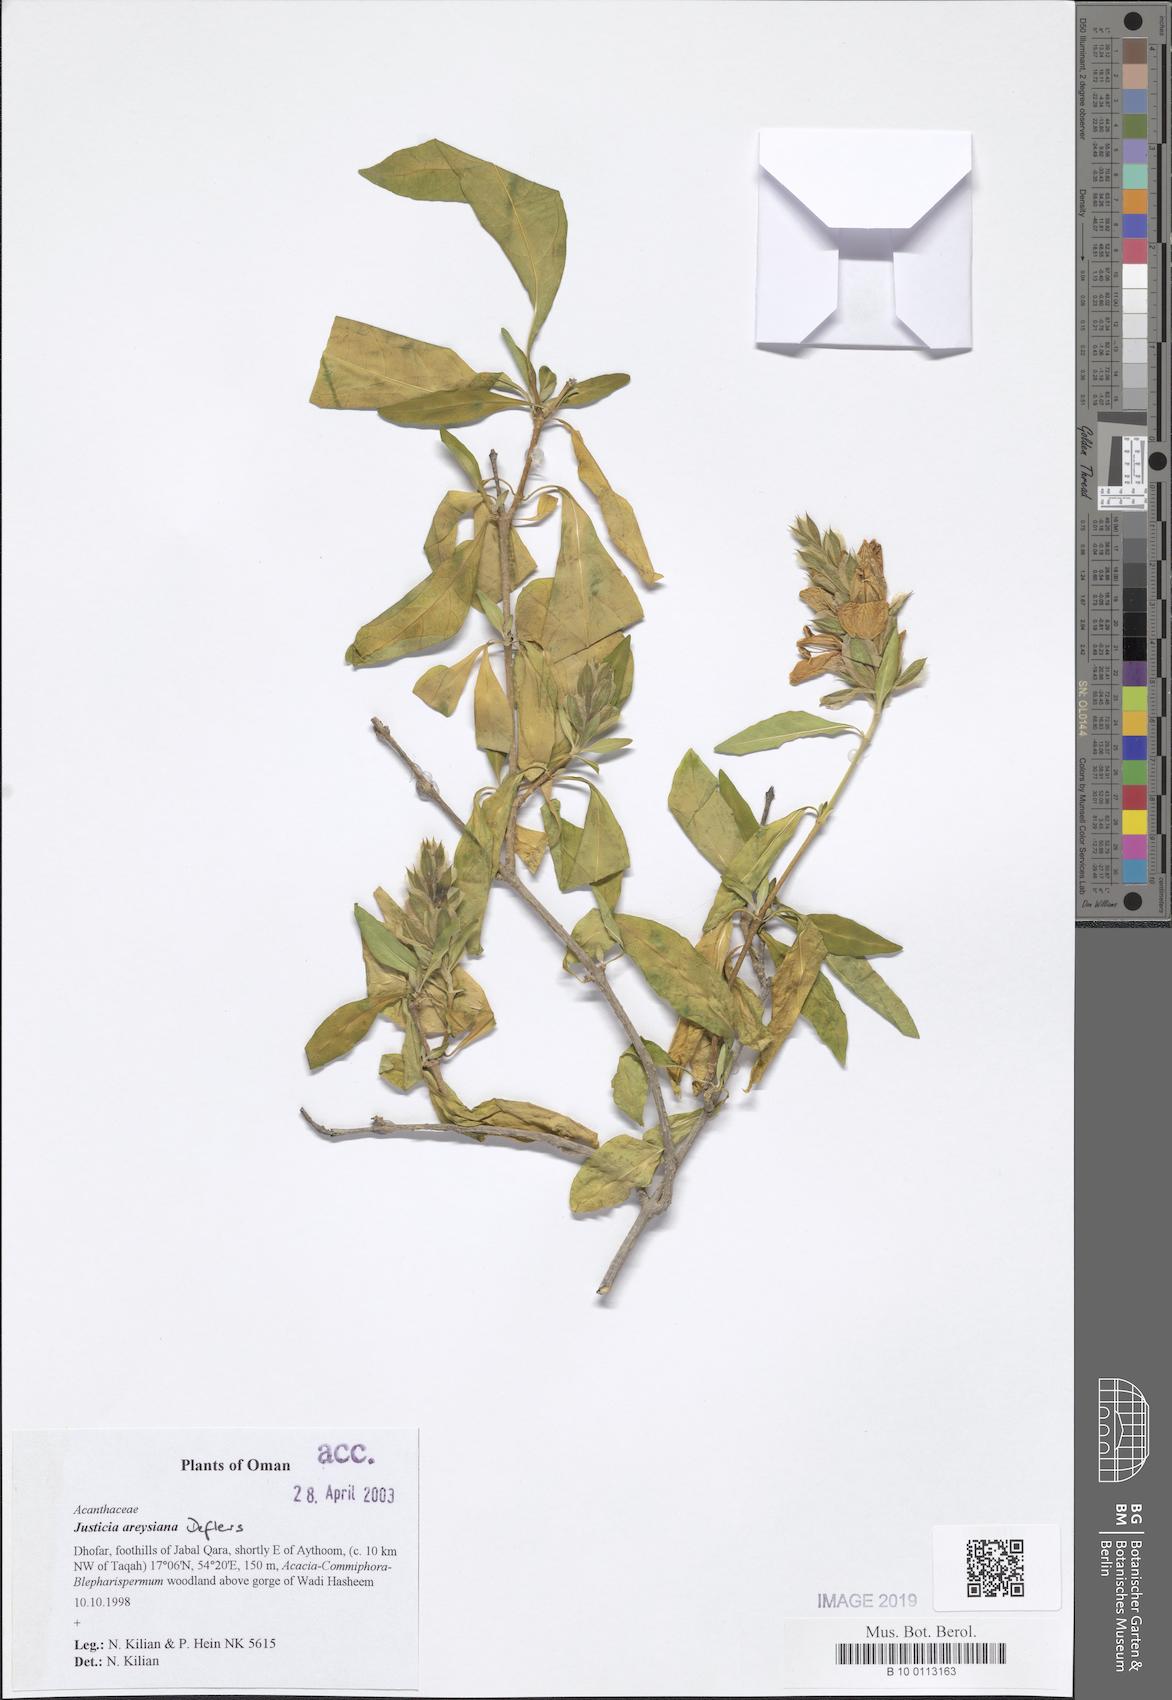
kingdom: Plantae
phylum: Tracheophyta
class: Magnoliopsida
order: Lamiales
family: Acanthaceae
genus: Justicia
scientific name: Justicia areysiana
